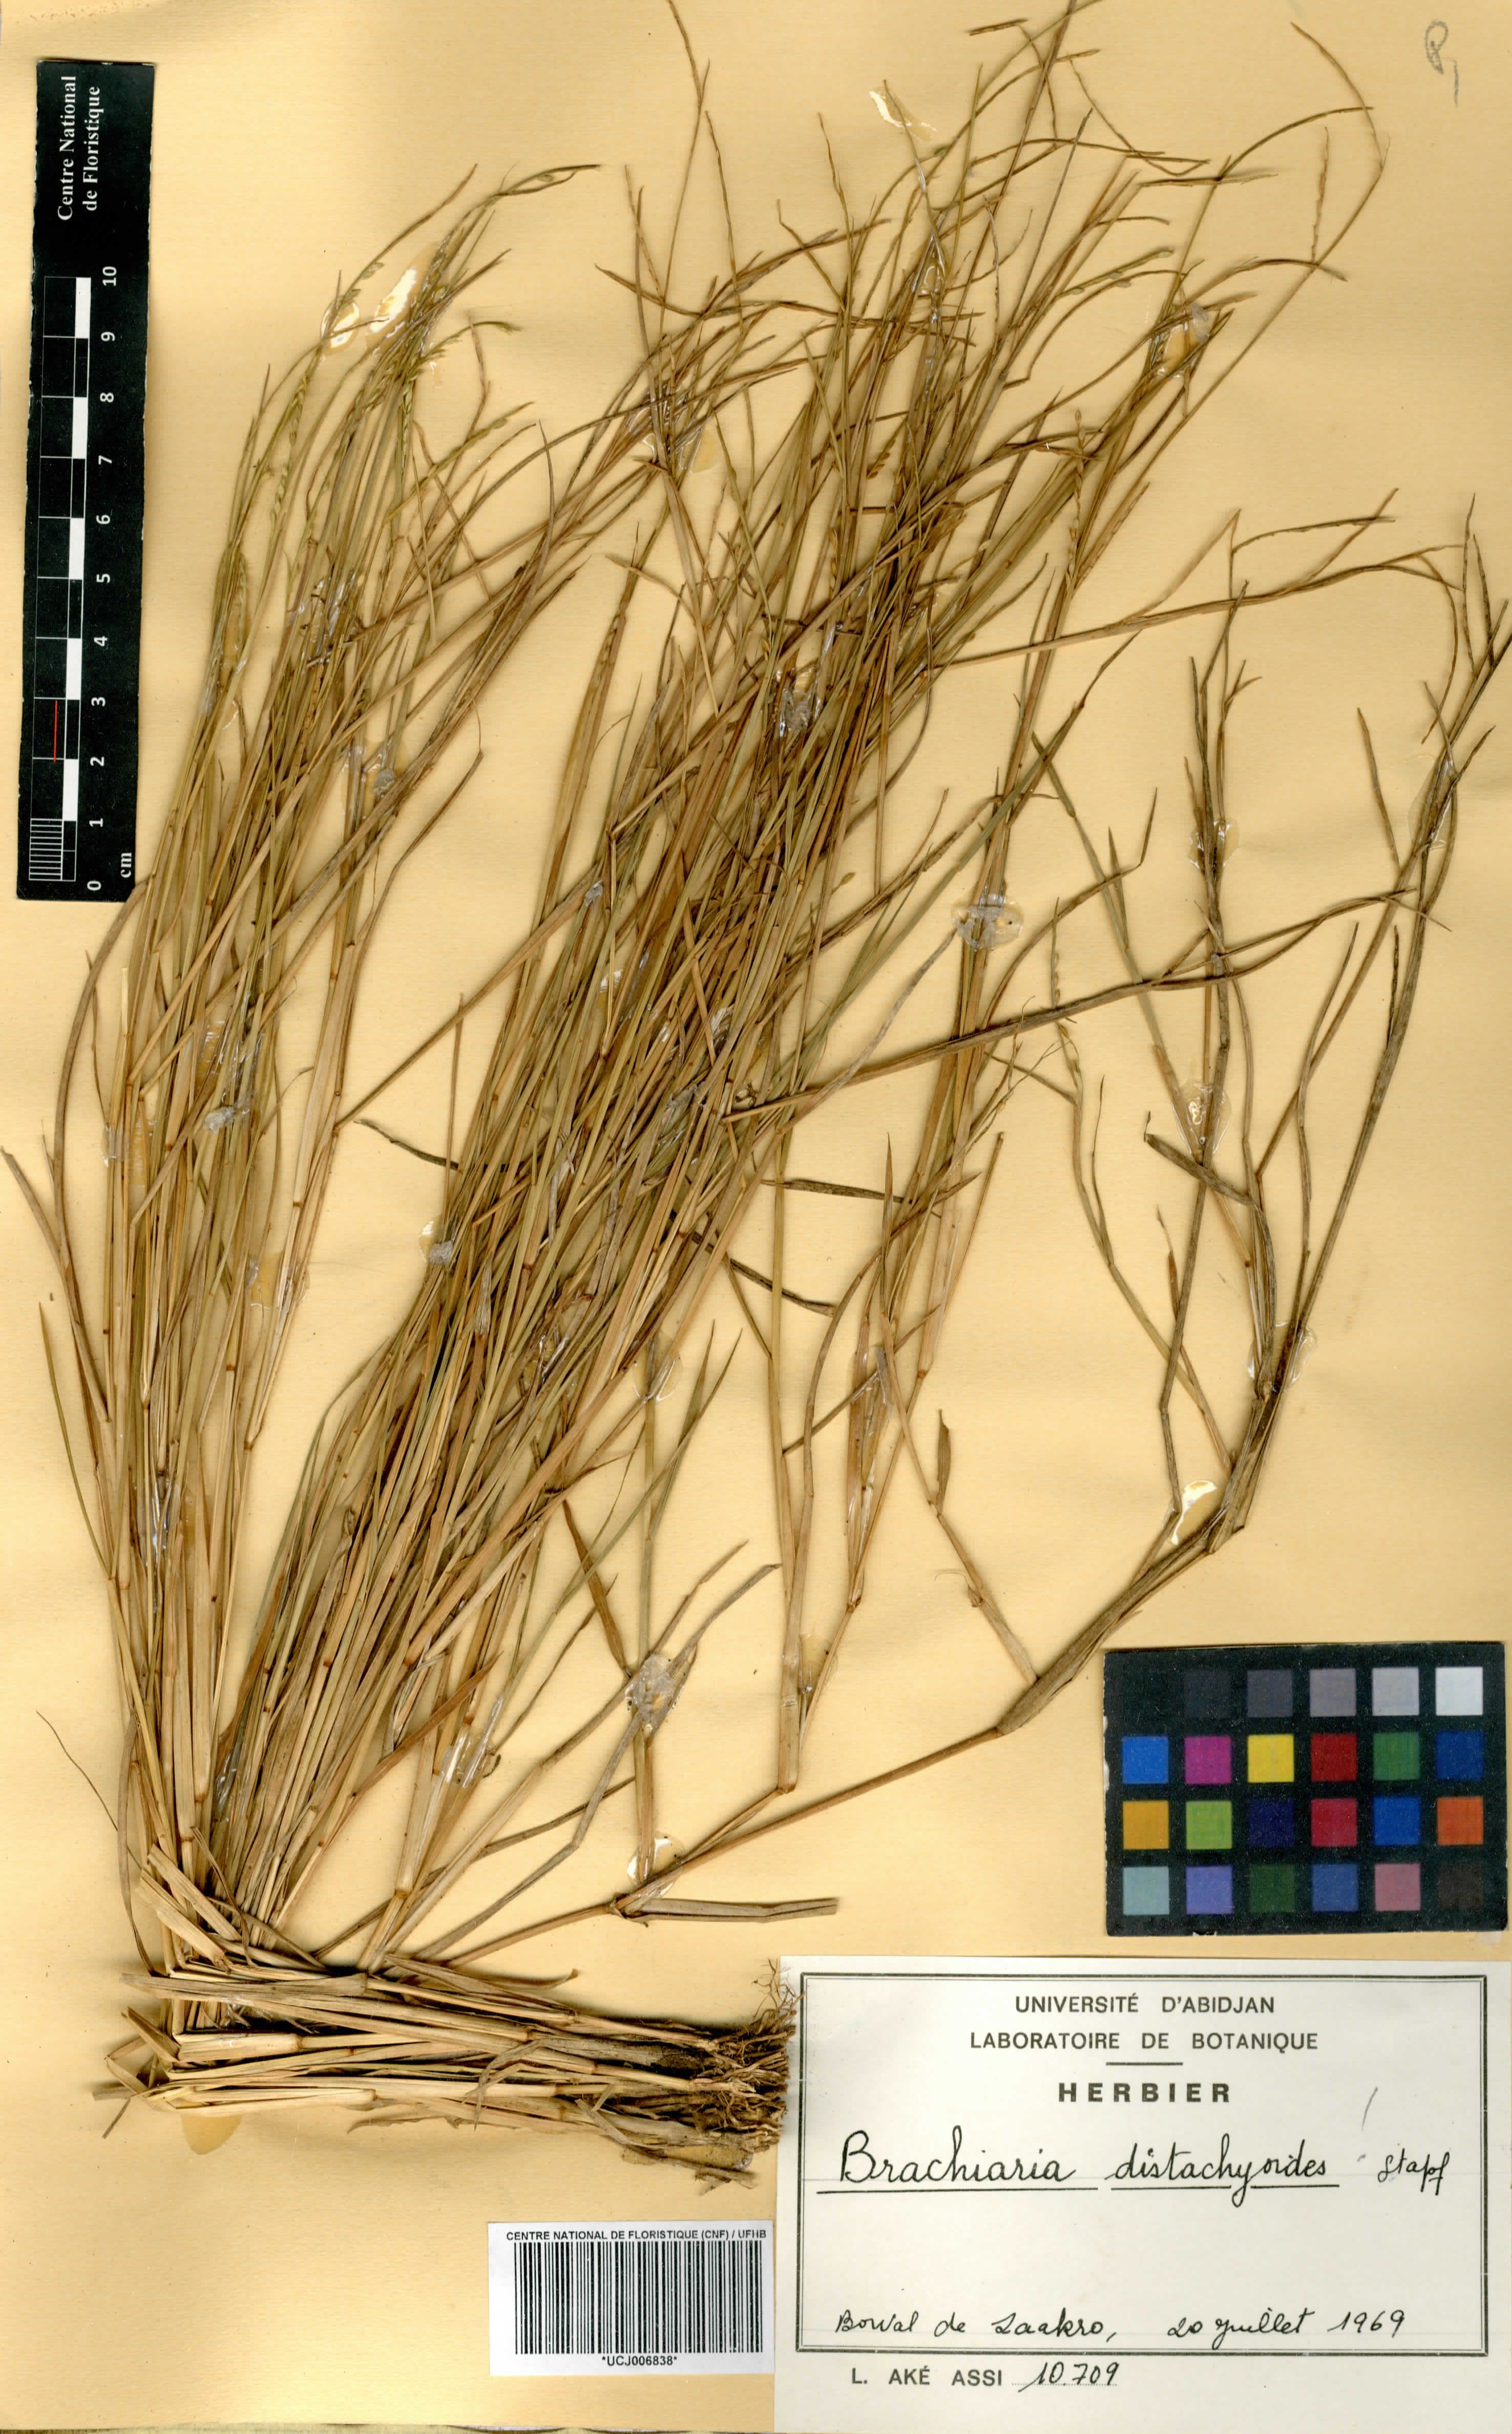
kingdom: Plantae
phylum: Tracheophyta
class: Liliopsida
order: Poales
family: Poaceae
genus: Urochloa
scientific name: Urochloa villosa
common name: Hairy signalgrass
